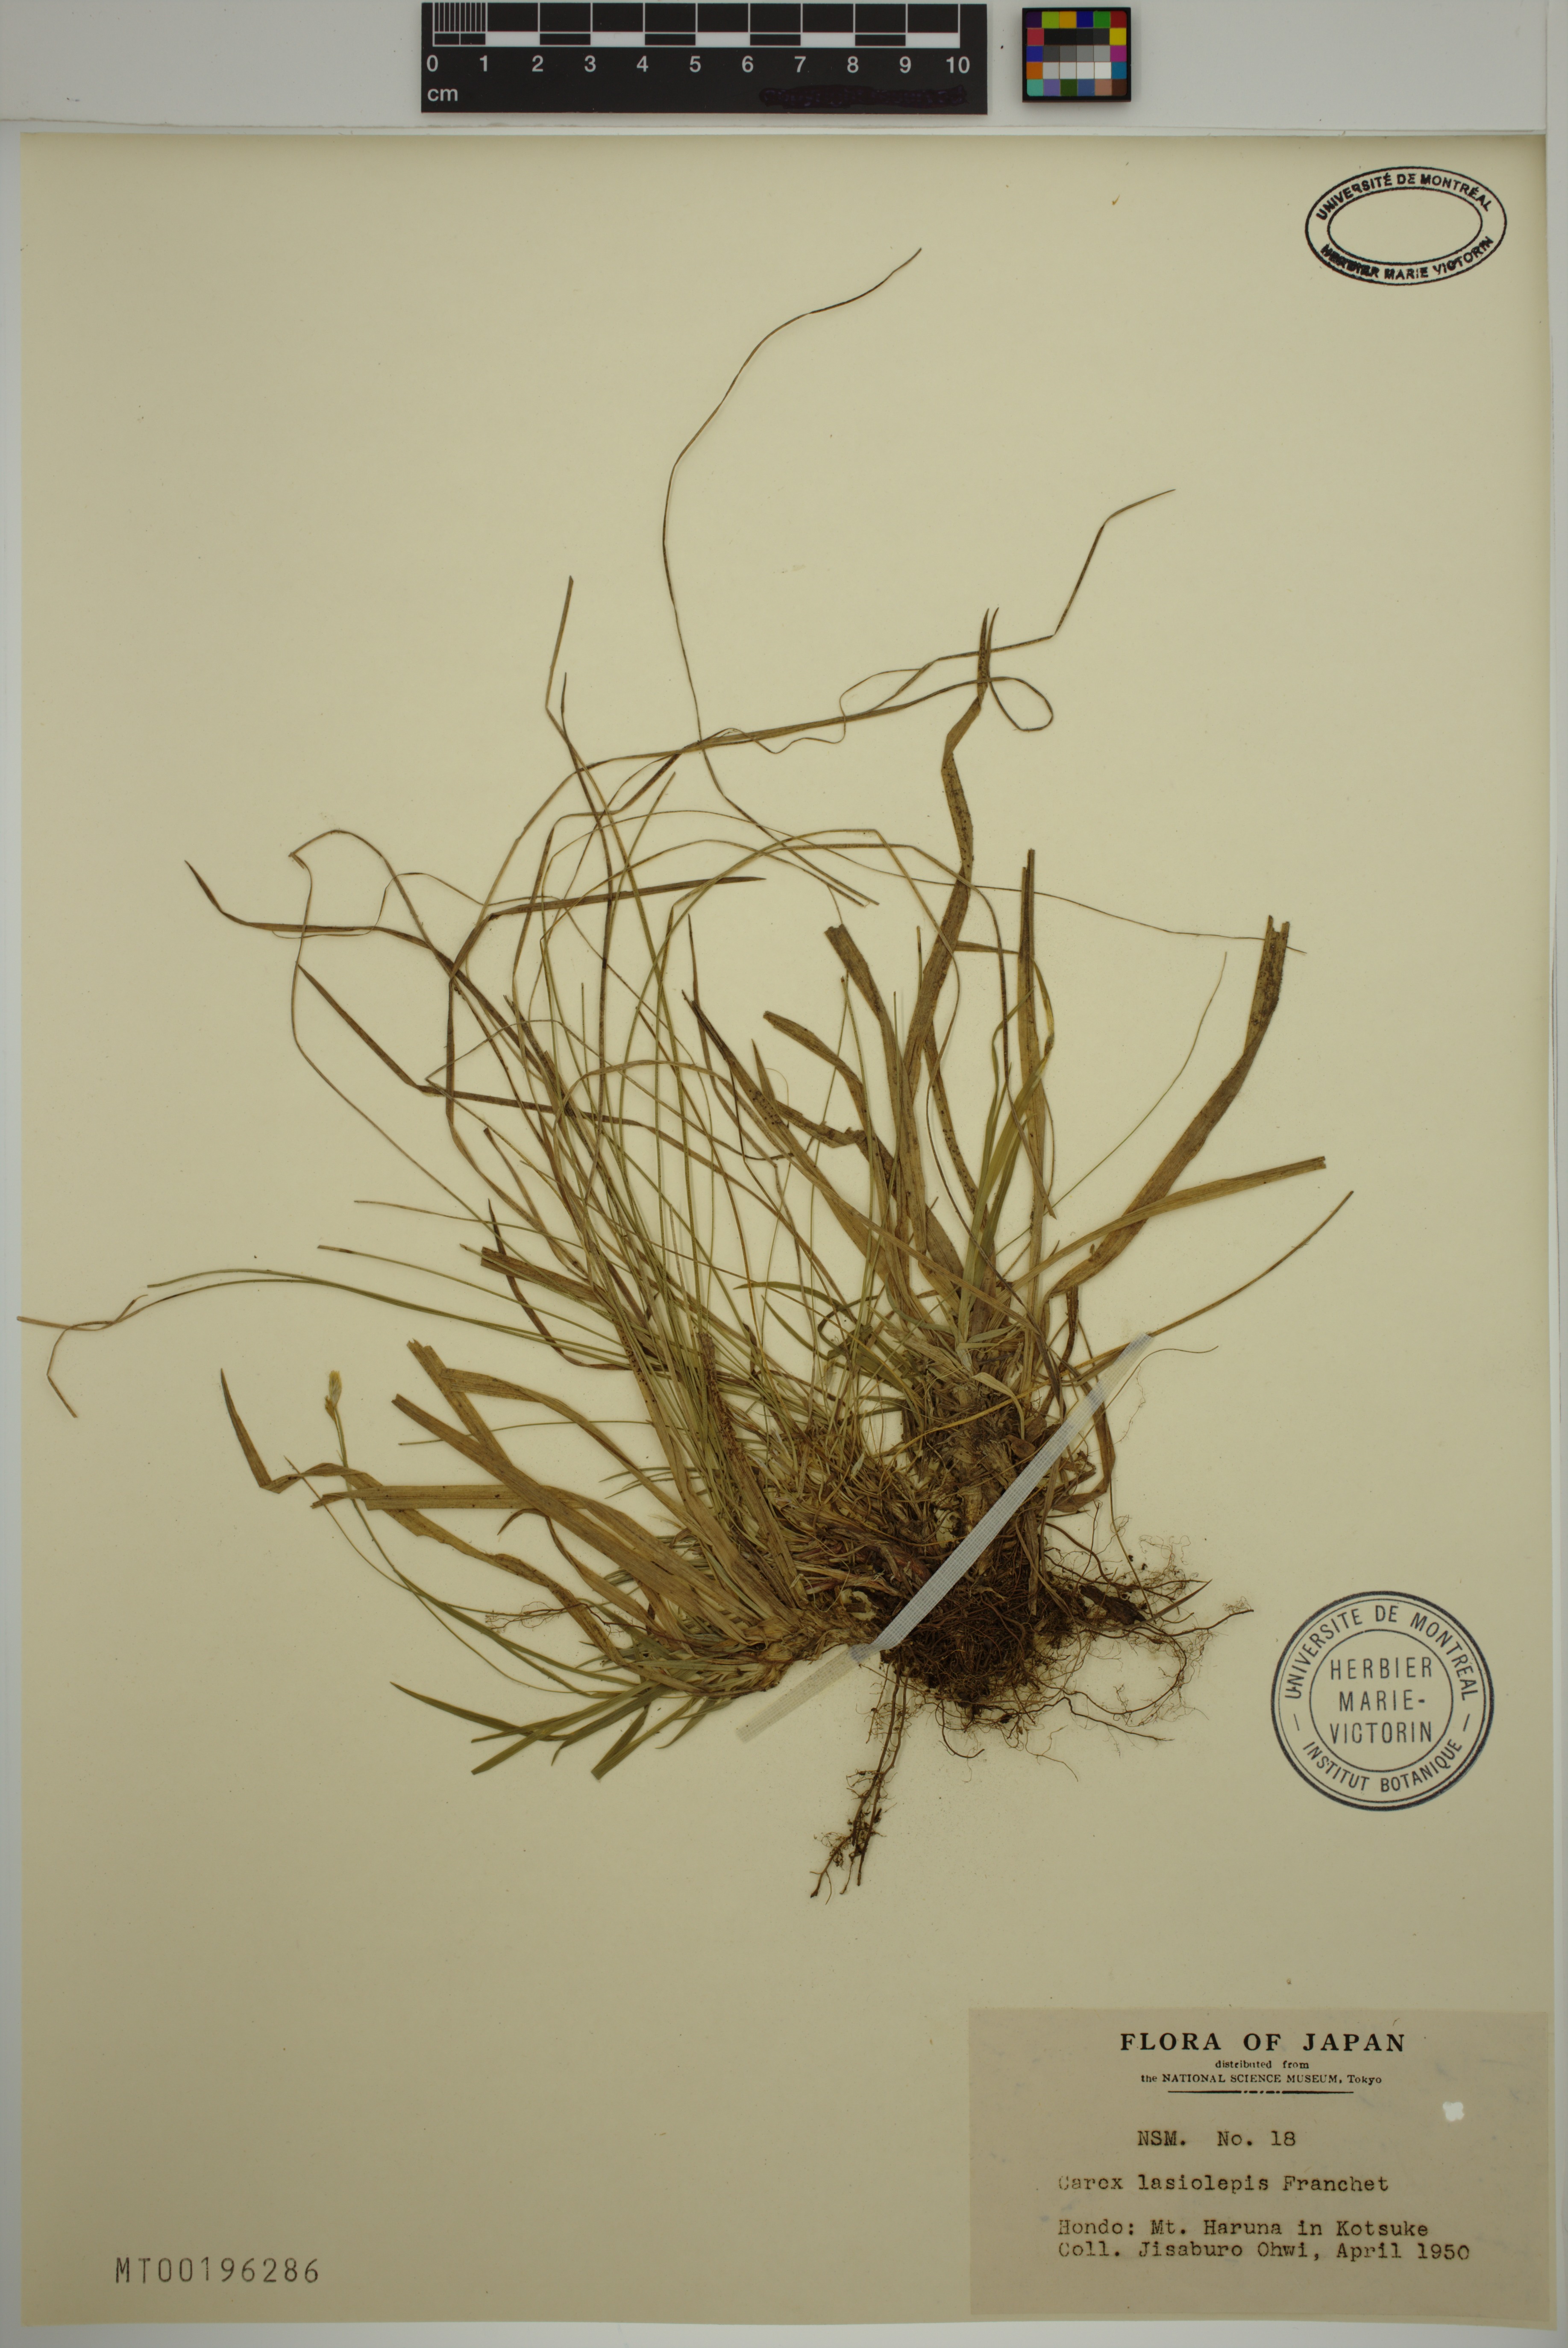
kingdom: Plantae
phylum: Tracheophyta
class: Liliopsida
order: Poales
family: Cyperaceae
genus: Carex
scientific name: Carex lasiolepis
